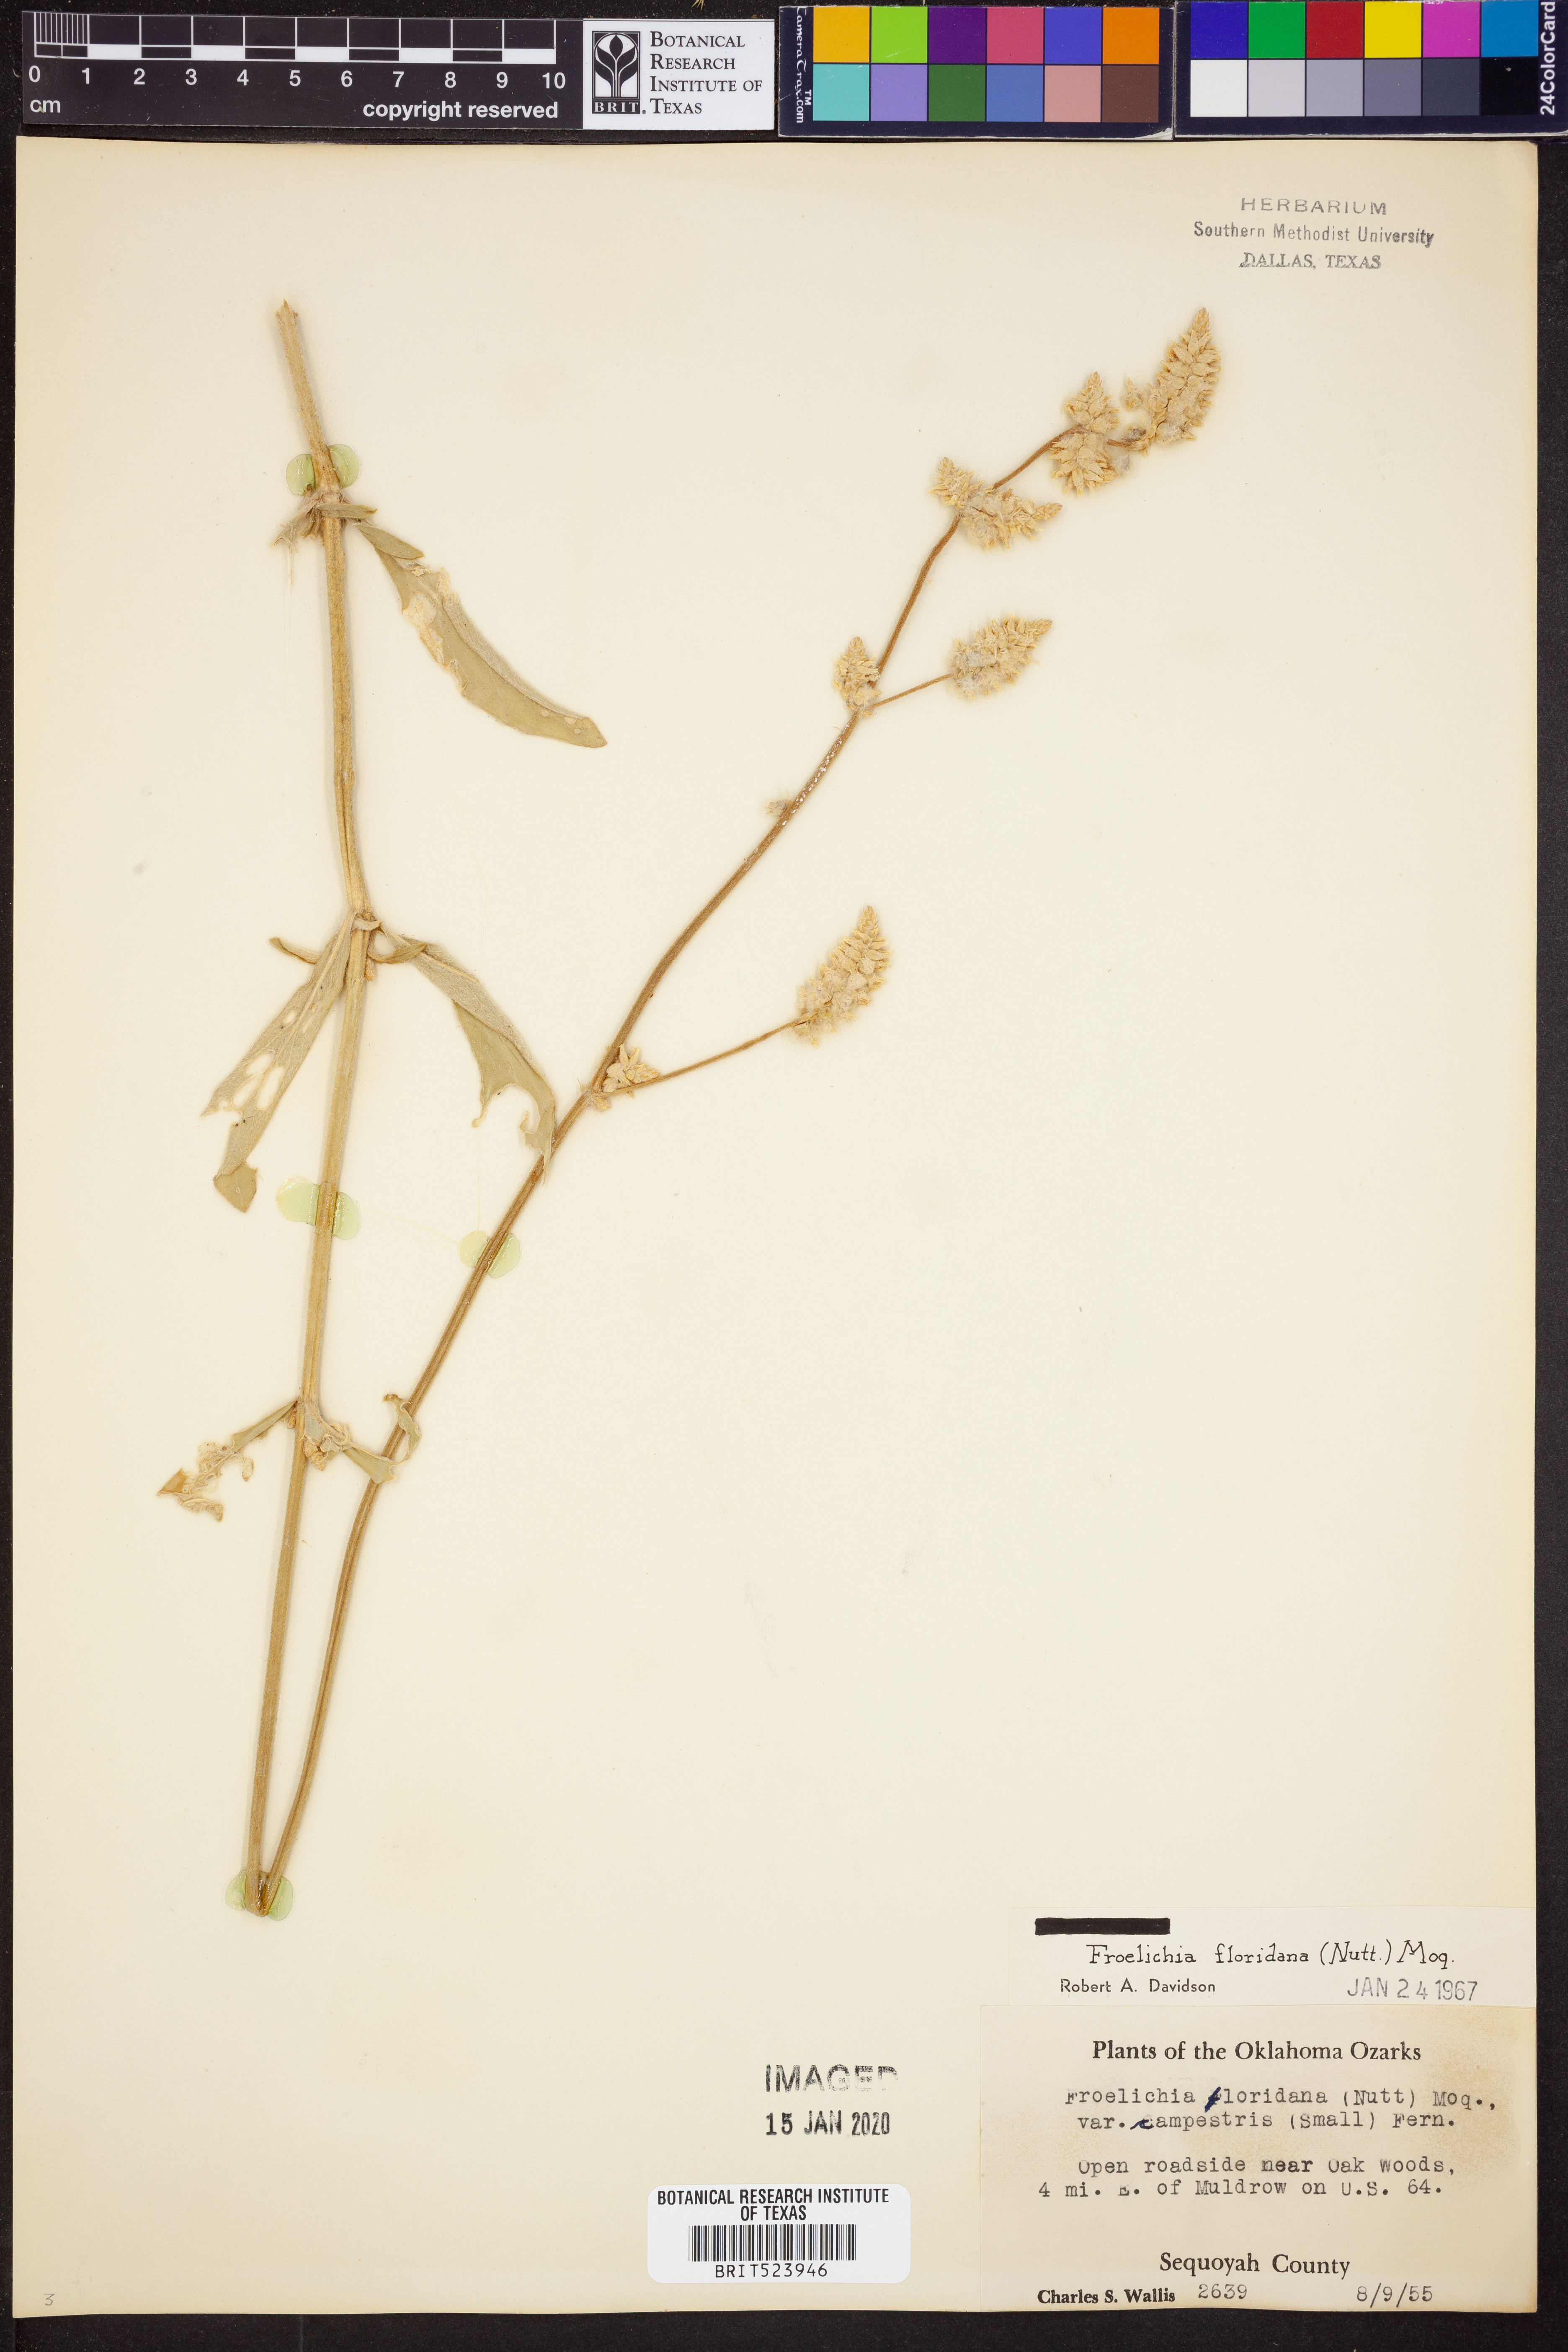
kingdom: Plantae
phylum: Tracheophyta
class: Magnoliopsida
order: Caryophyllales
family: Amaranthaceae
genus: Froelichia
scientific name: Froelichia floridana
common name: Florida snake-cotton
